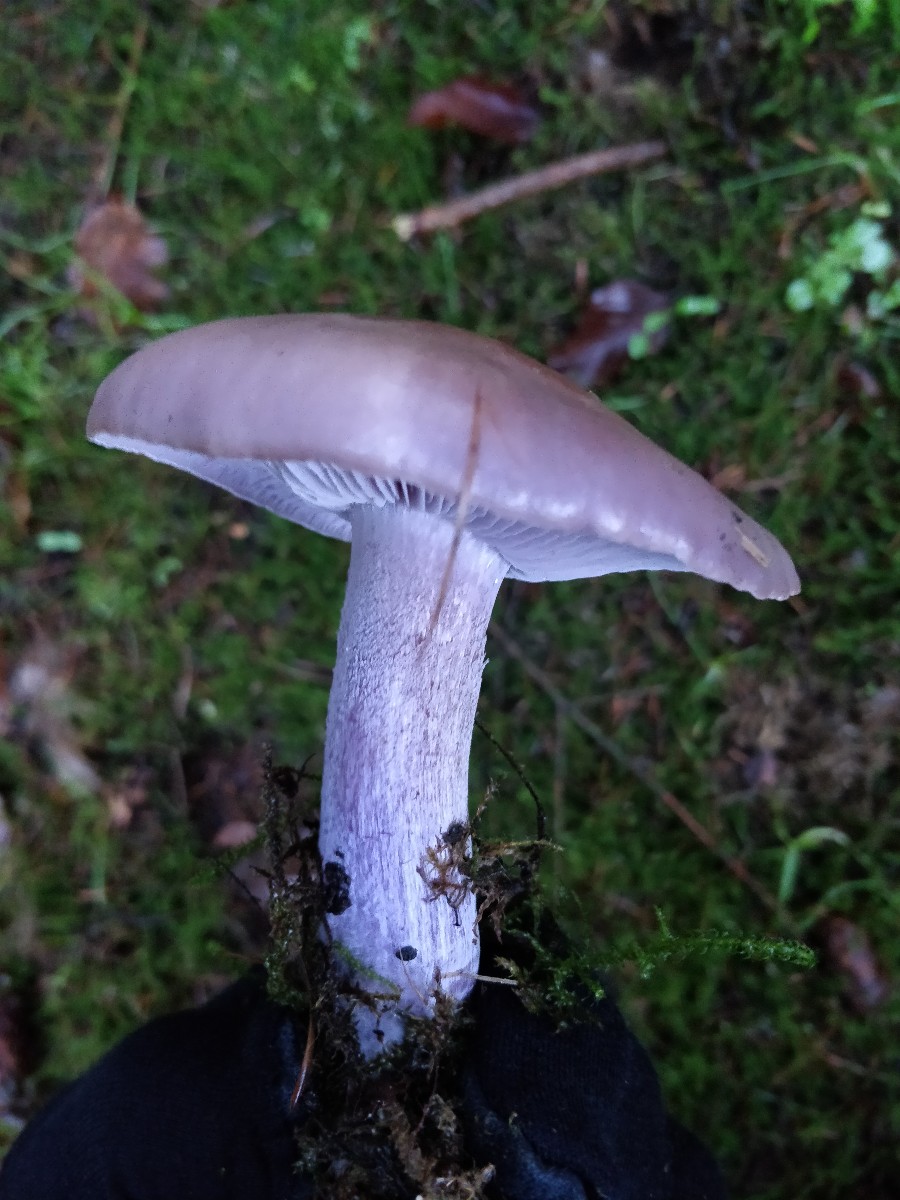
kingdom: Fungi
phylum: Basidiomycota
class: Agaricomycetes
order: Agaricales
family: Tricholomataceae
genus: Lepista
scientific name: Lepista nuda
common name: violet hekseringshat
